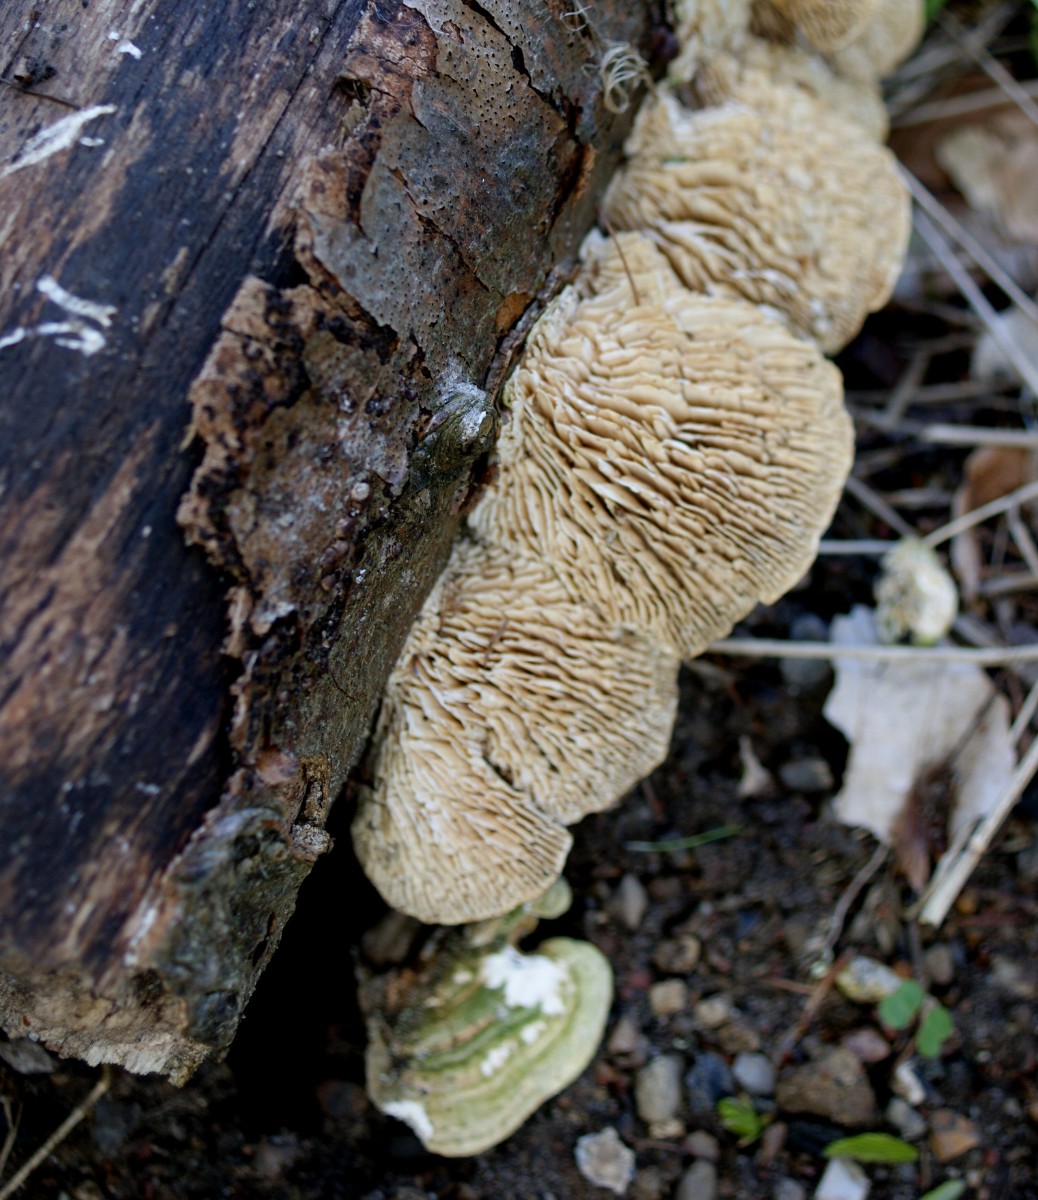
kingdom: Fungi
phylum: Basidiomycota
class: Agaricomycetes
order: Polyporales
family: Polyporaceae
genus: Lenzites
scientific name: Lenzites betulinus
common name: birke-læderporesvamp
